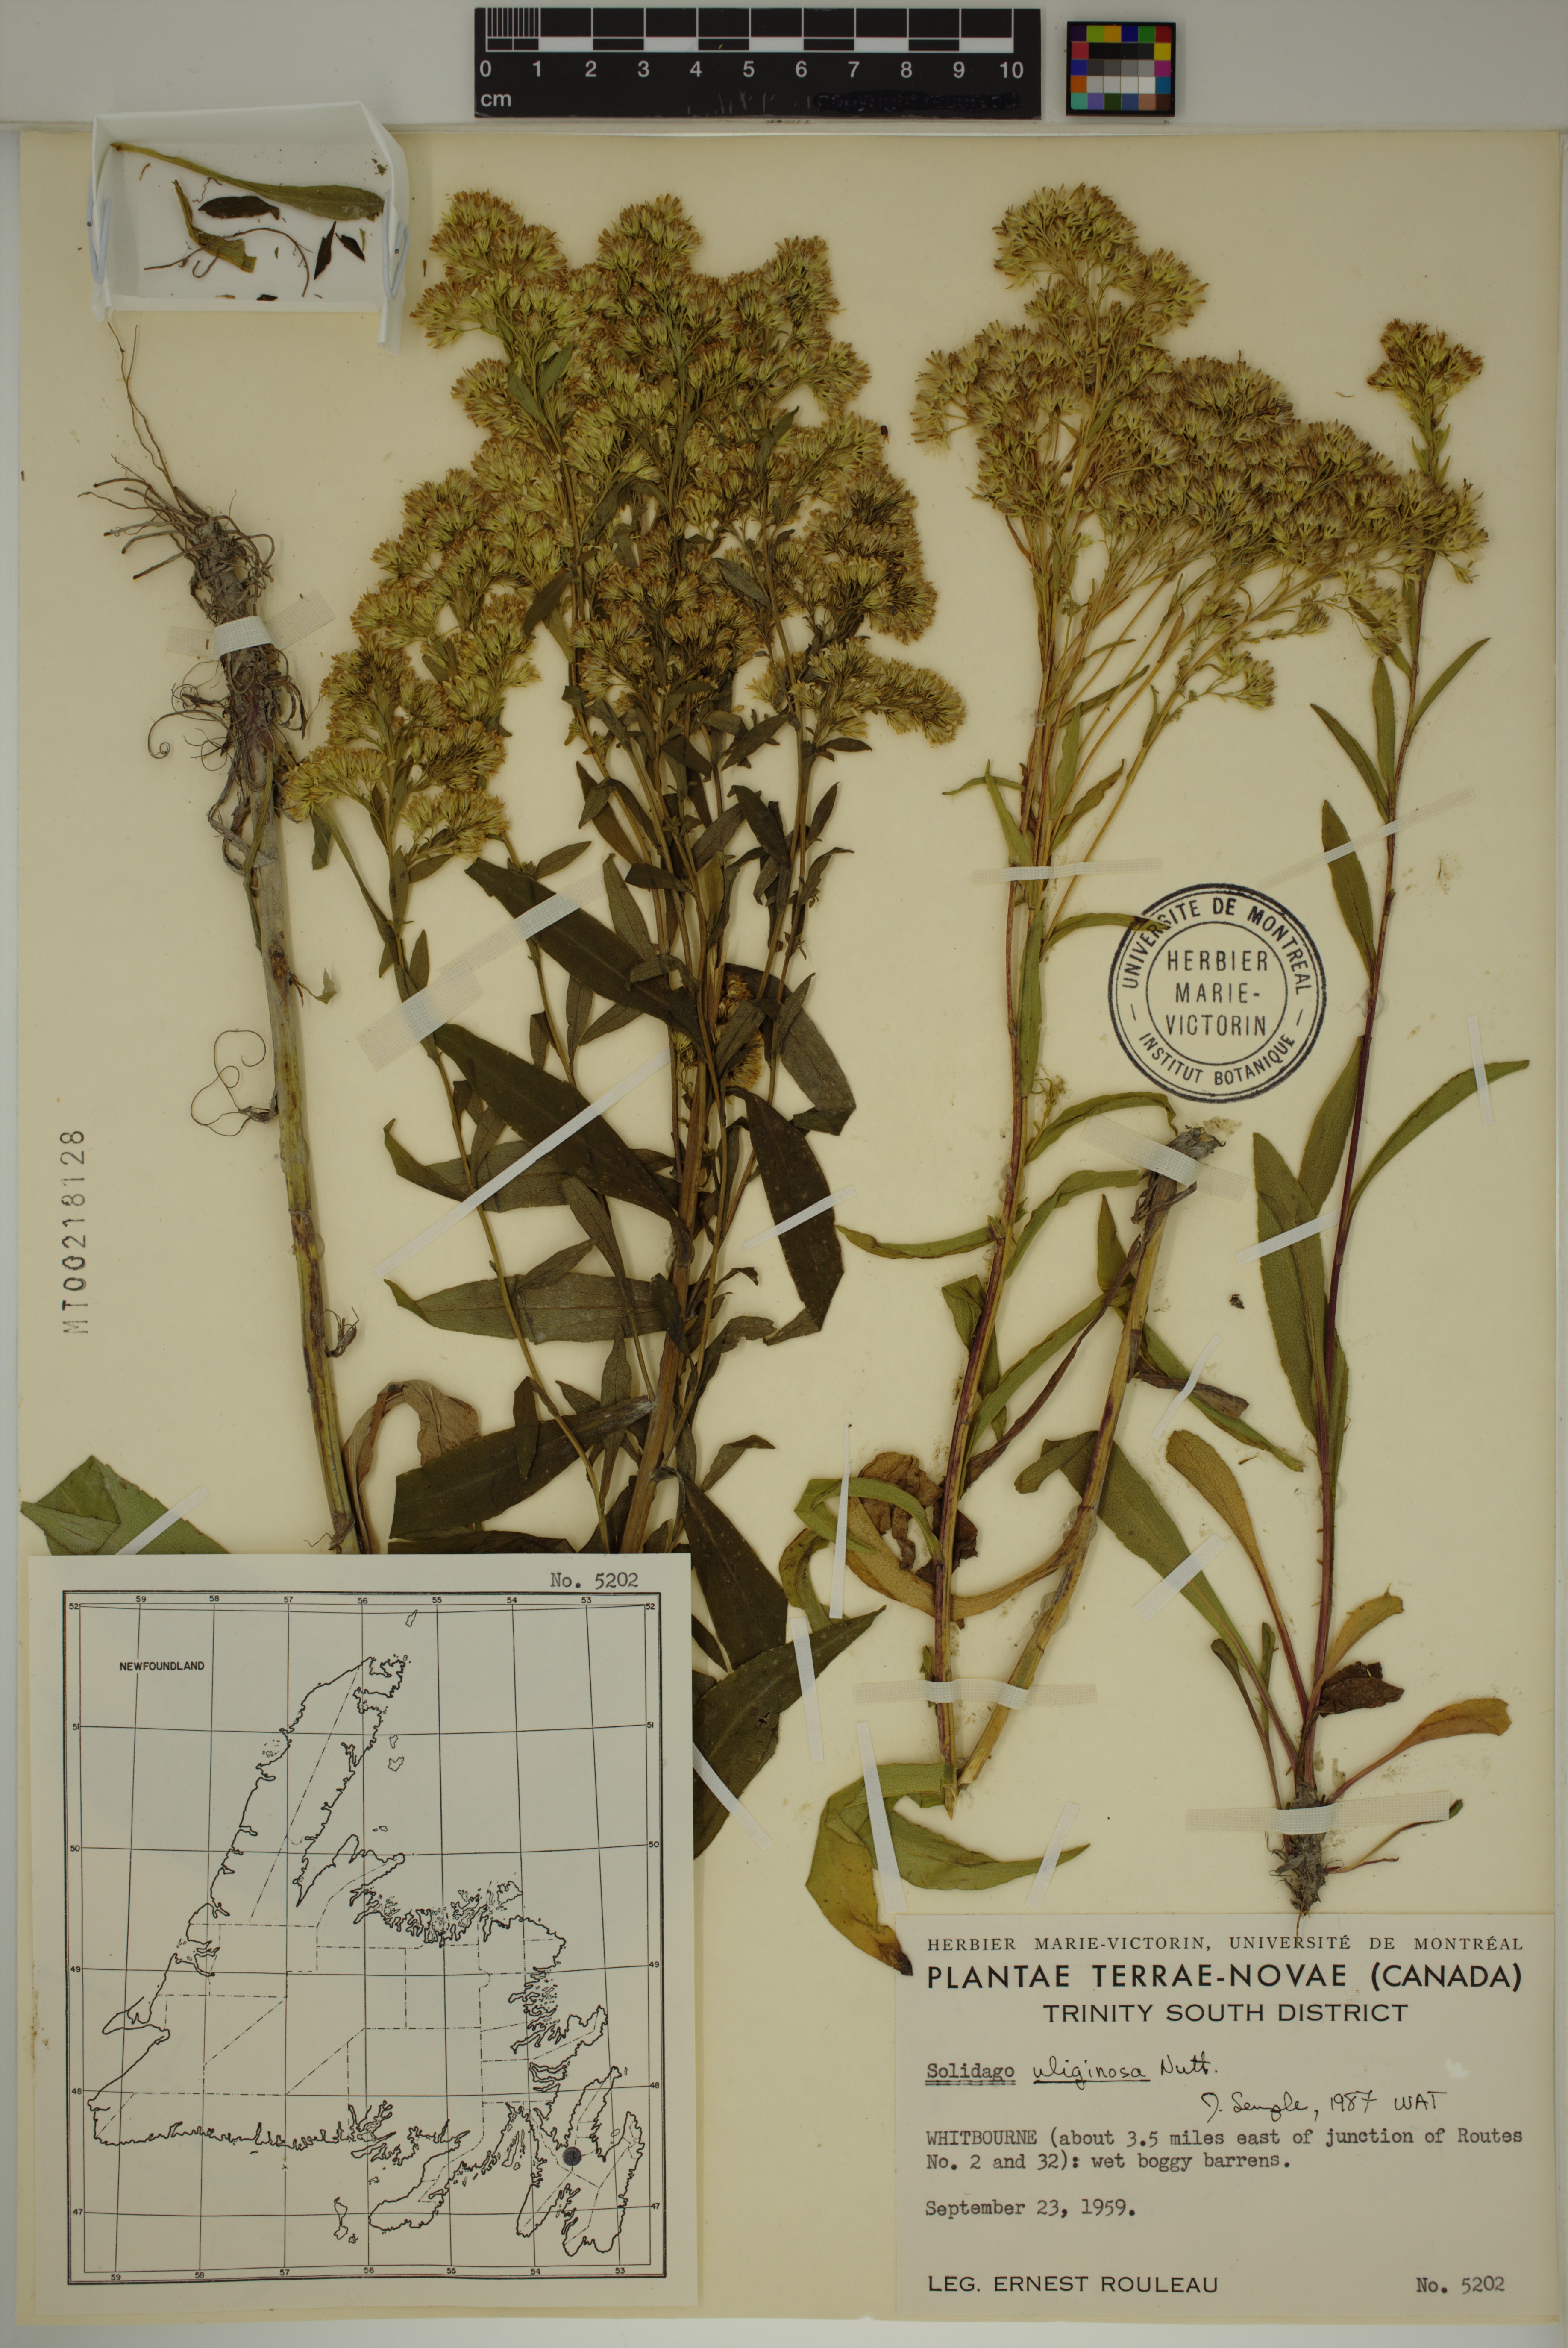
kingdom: Plantae
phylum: Tracheophyta
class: Magnoliopsida
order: Asterales
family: Asteraceae
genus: Solidago
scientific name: Solidago uliginosa
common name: Bog goldenrod
